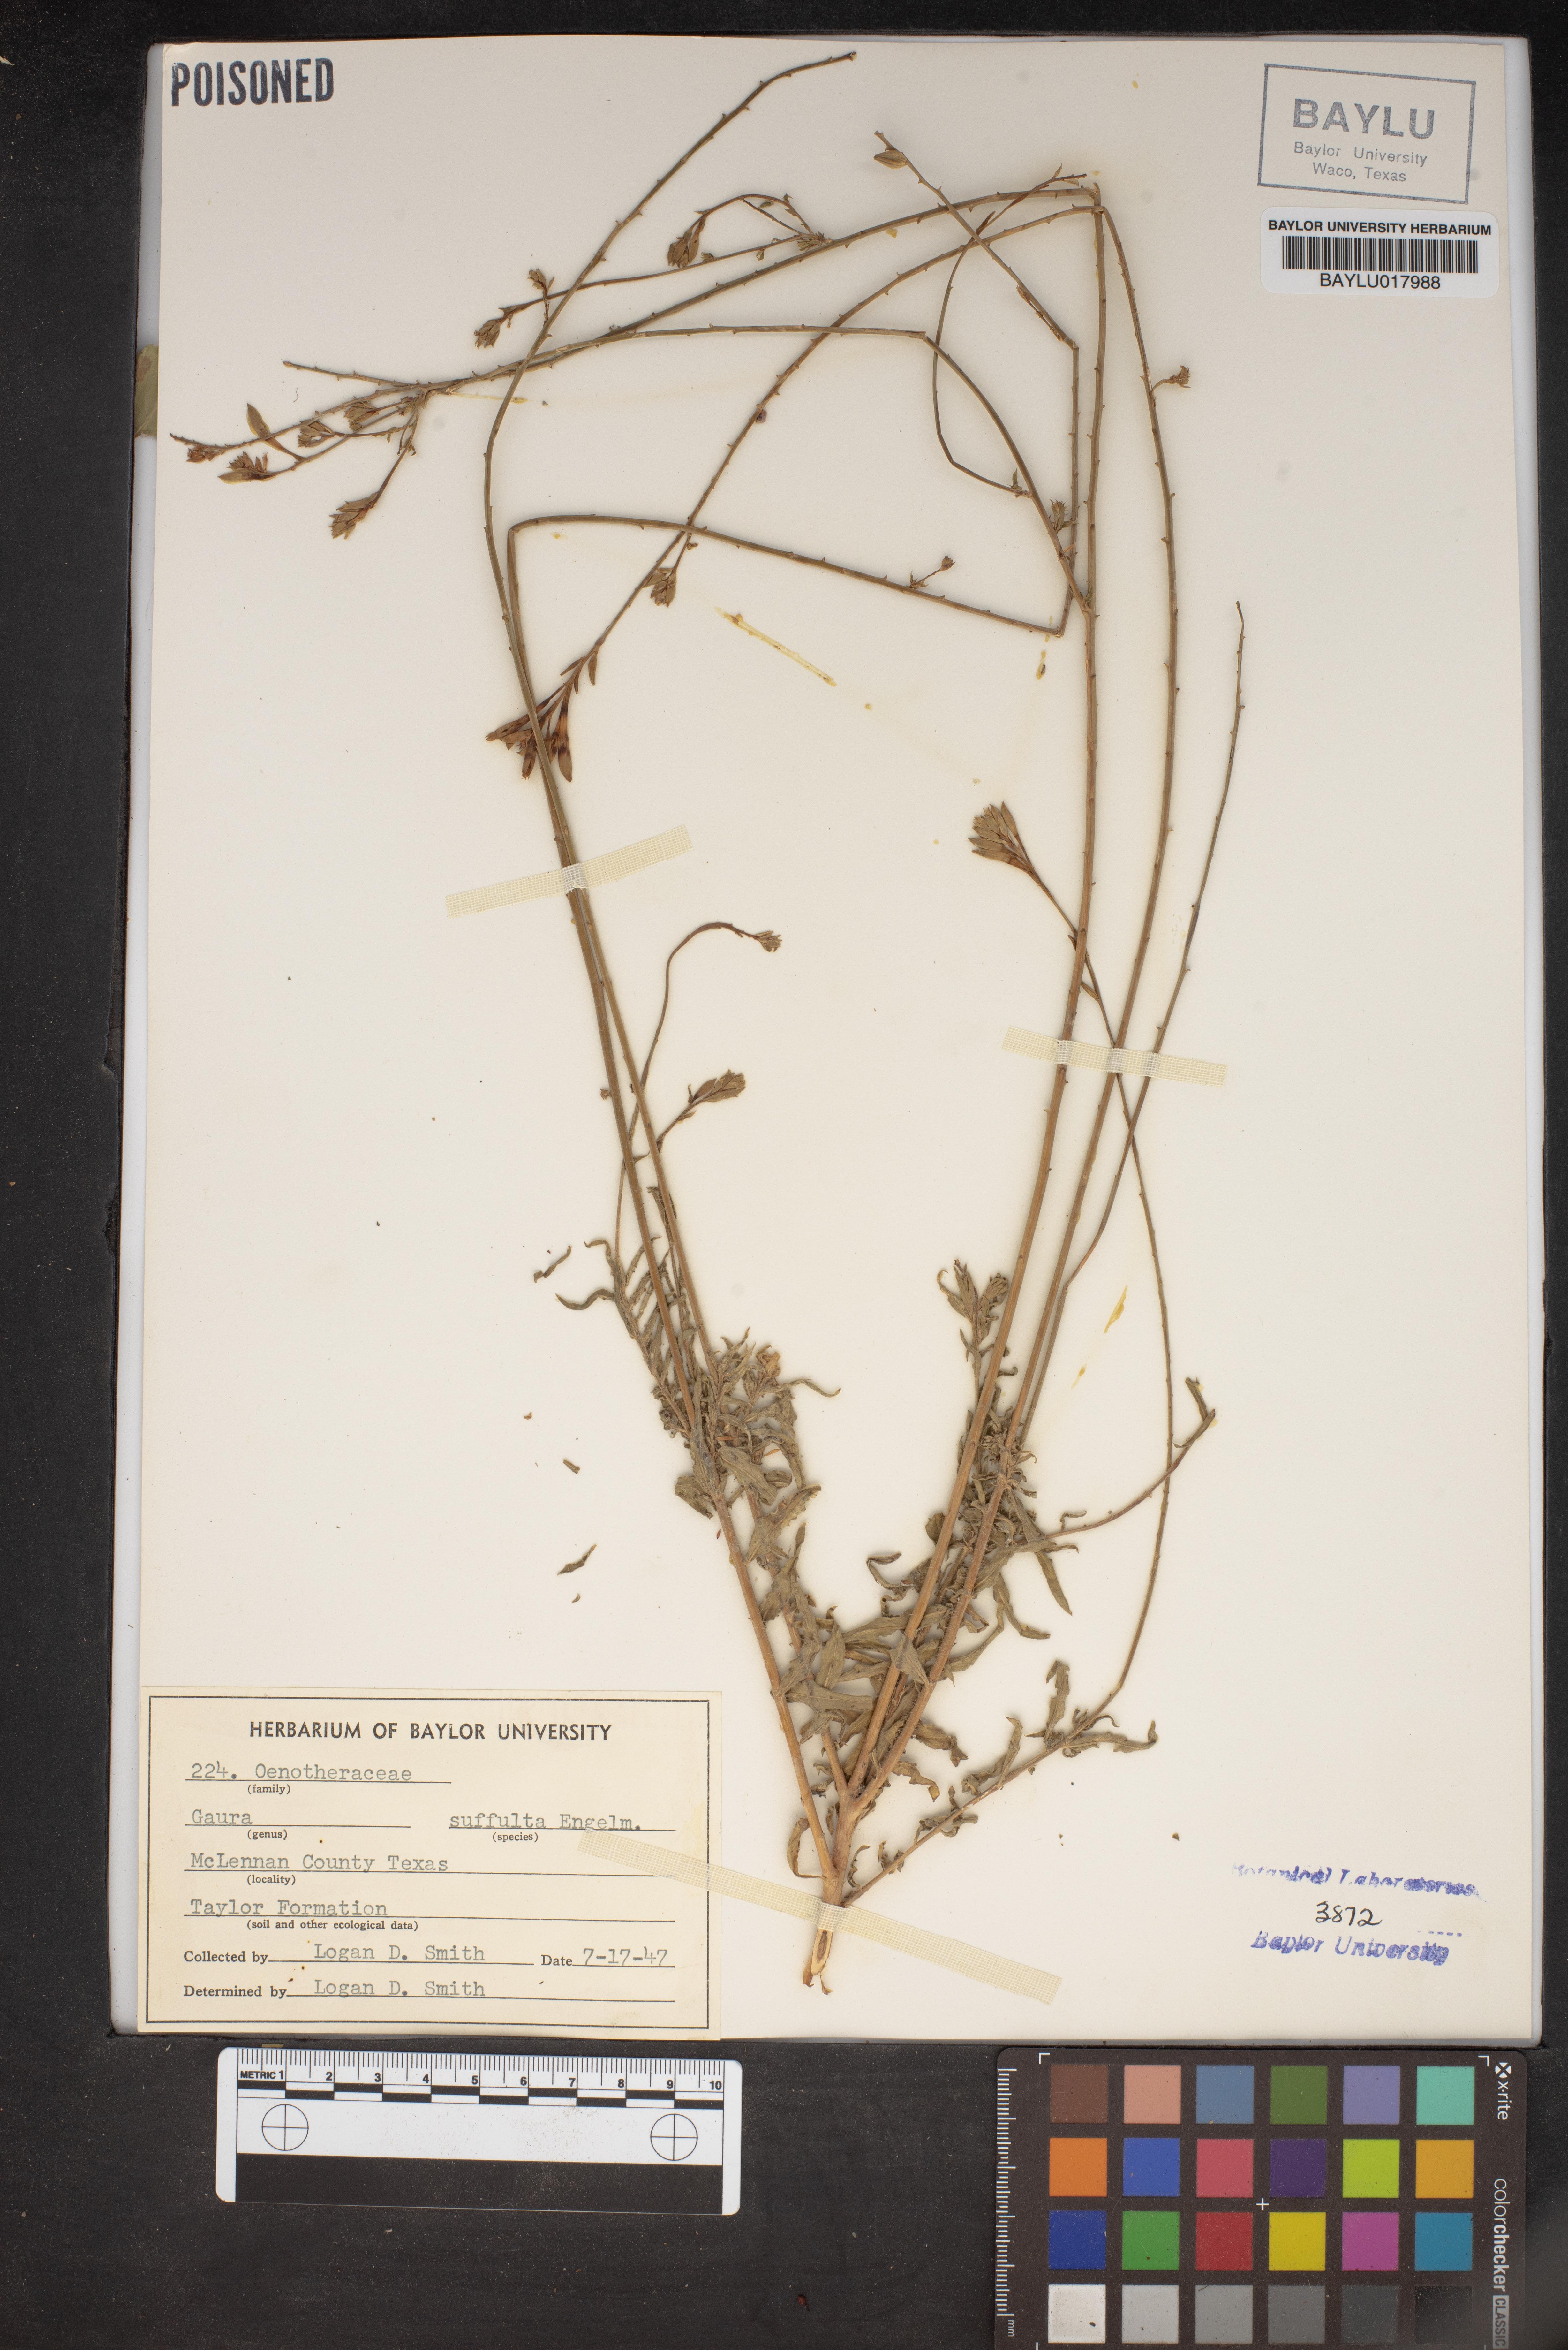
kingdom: Plantae
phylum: Tracheophyta
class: Magnoliopsida
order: Myrtales
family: Onagraceae
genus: Oenothera
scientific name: Oenothera Gaura suffulta
